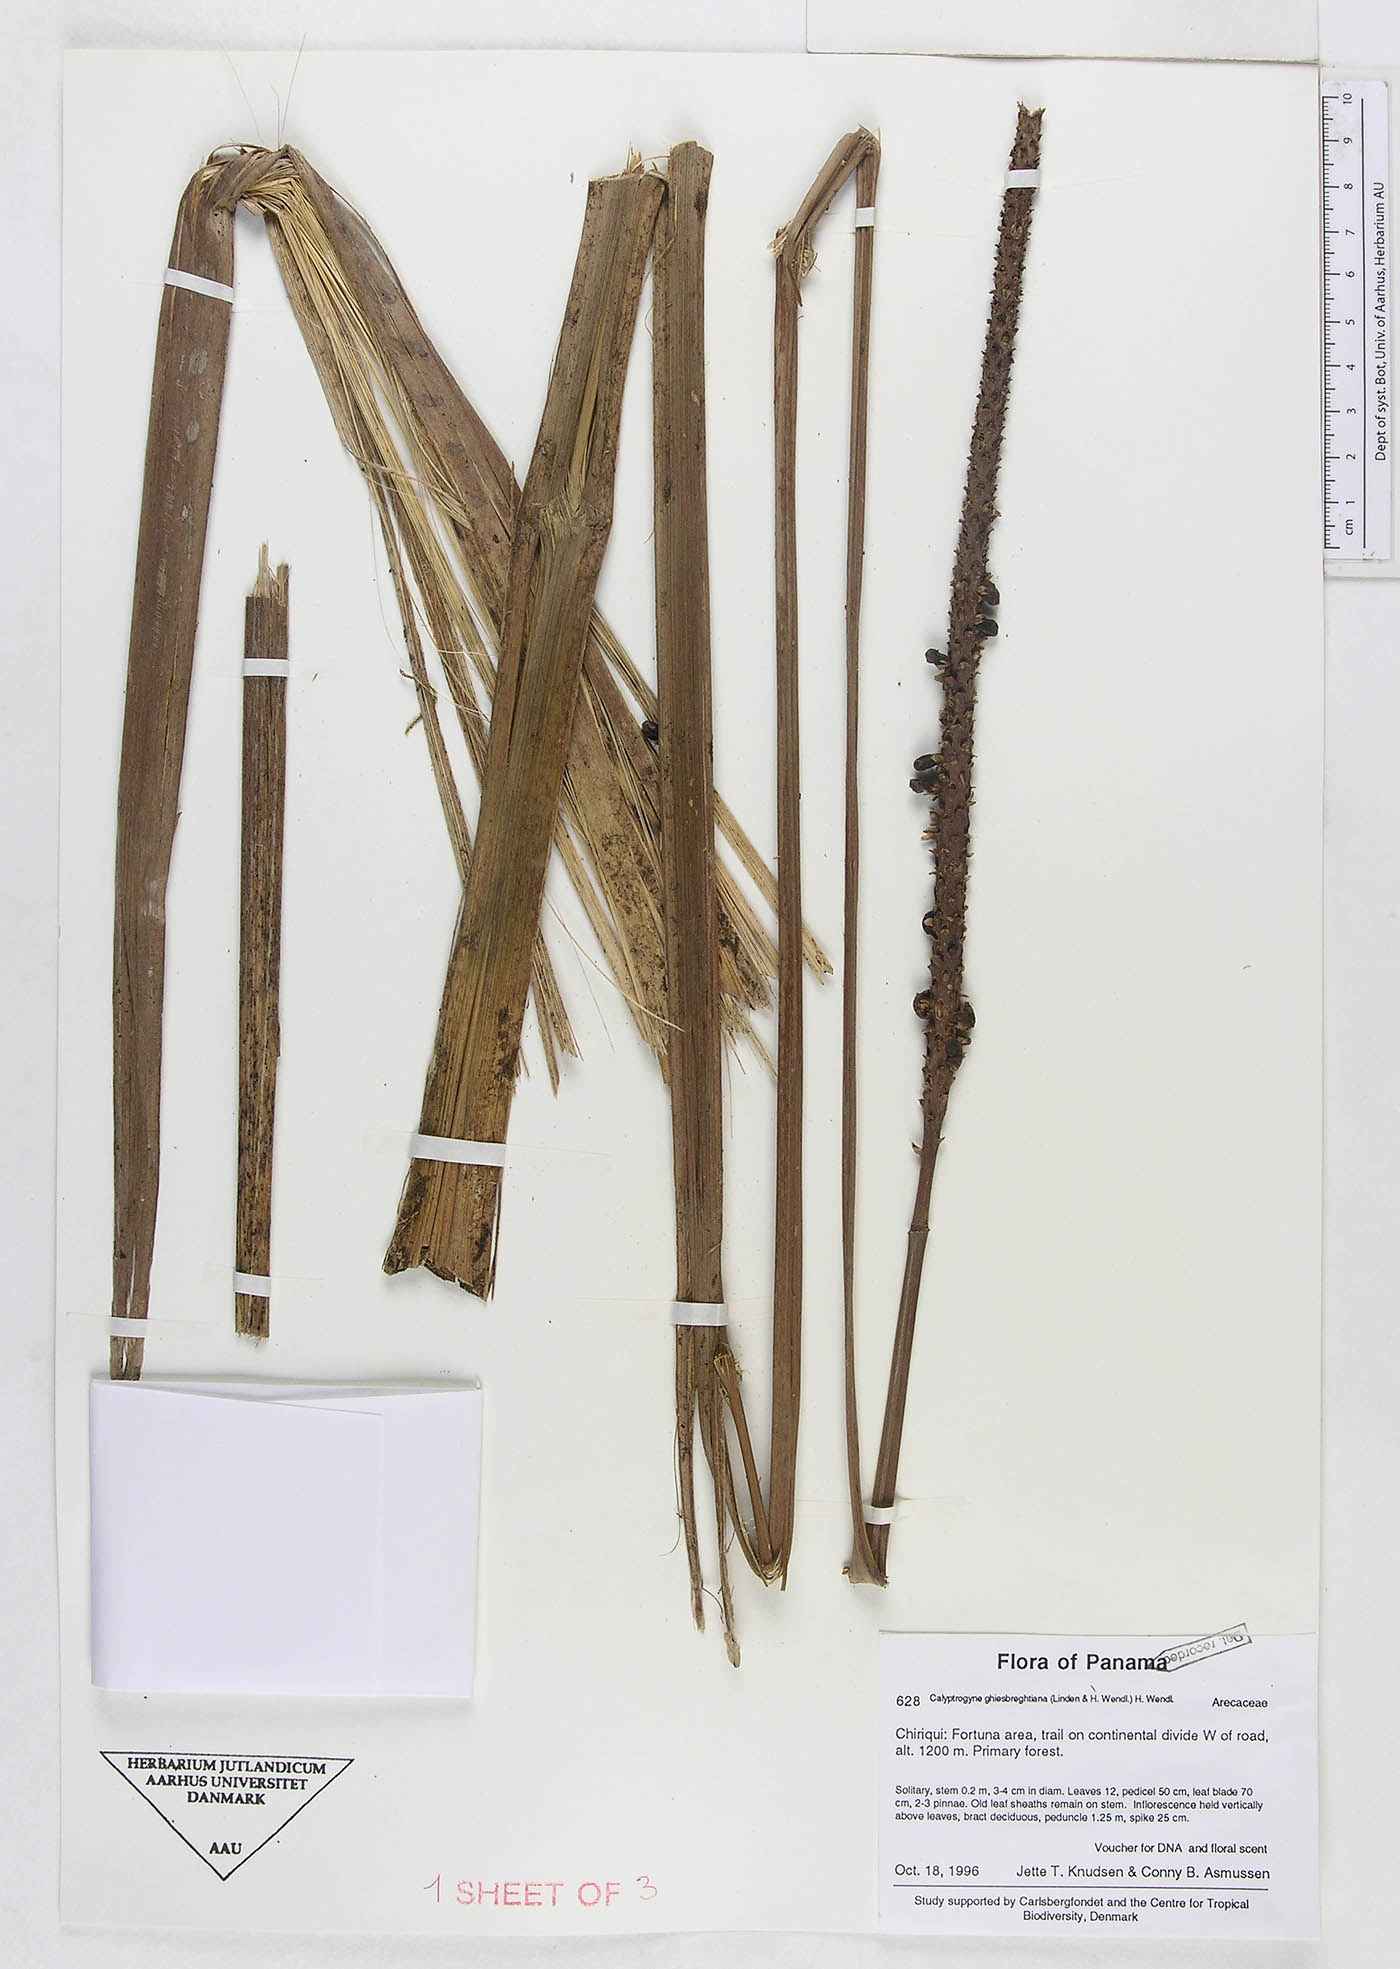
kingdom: Plantae
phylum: Tracheophyta
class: Liliopsida
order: Arecales
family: Arecaceae
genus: Calyptrogyne
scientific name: Calyptrogyne ghiesbreghtiana
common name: Coligallo
